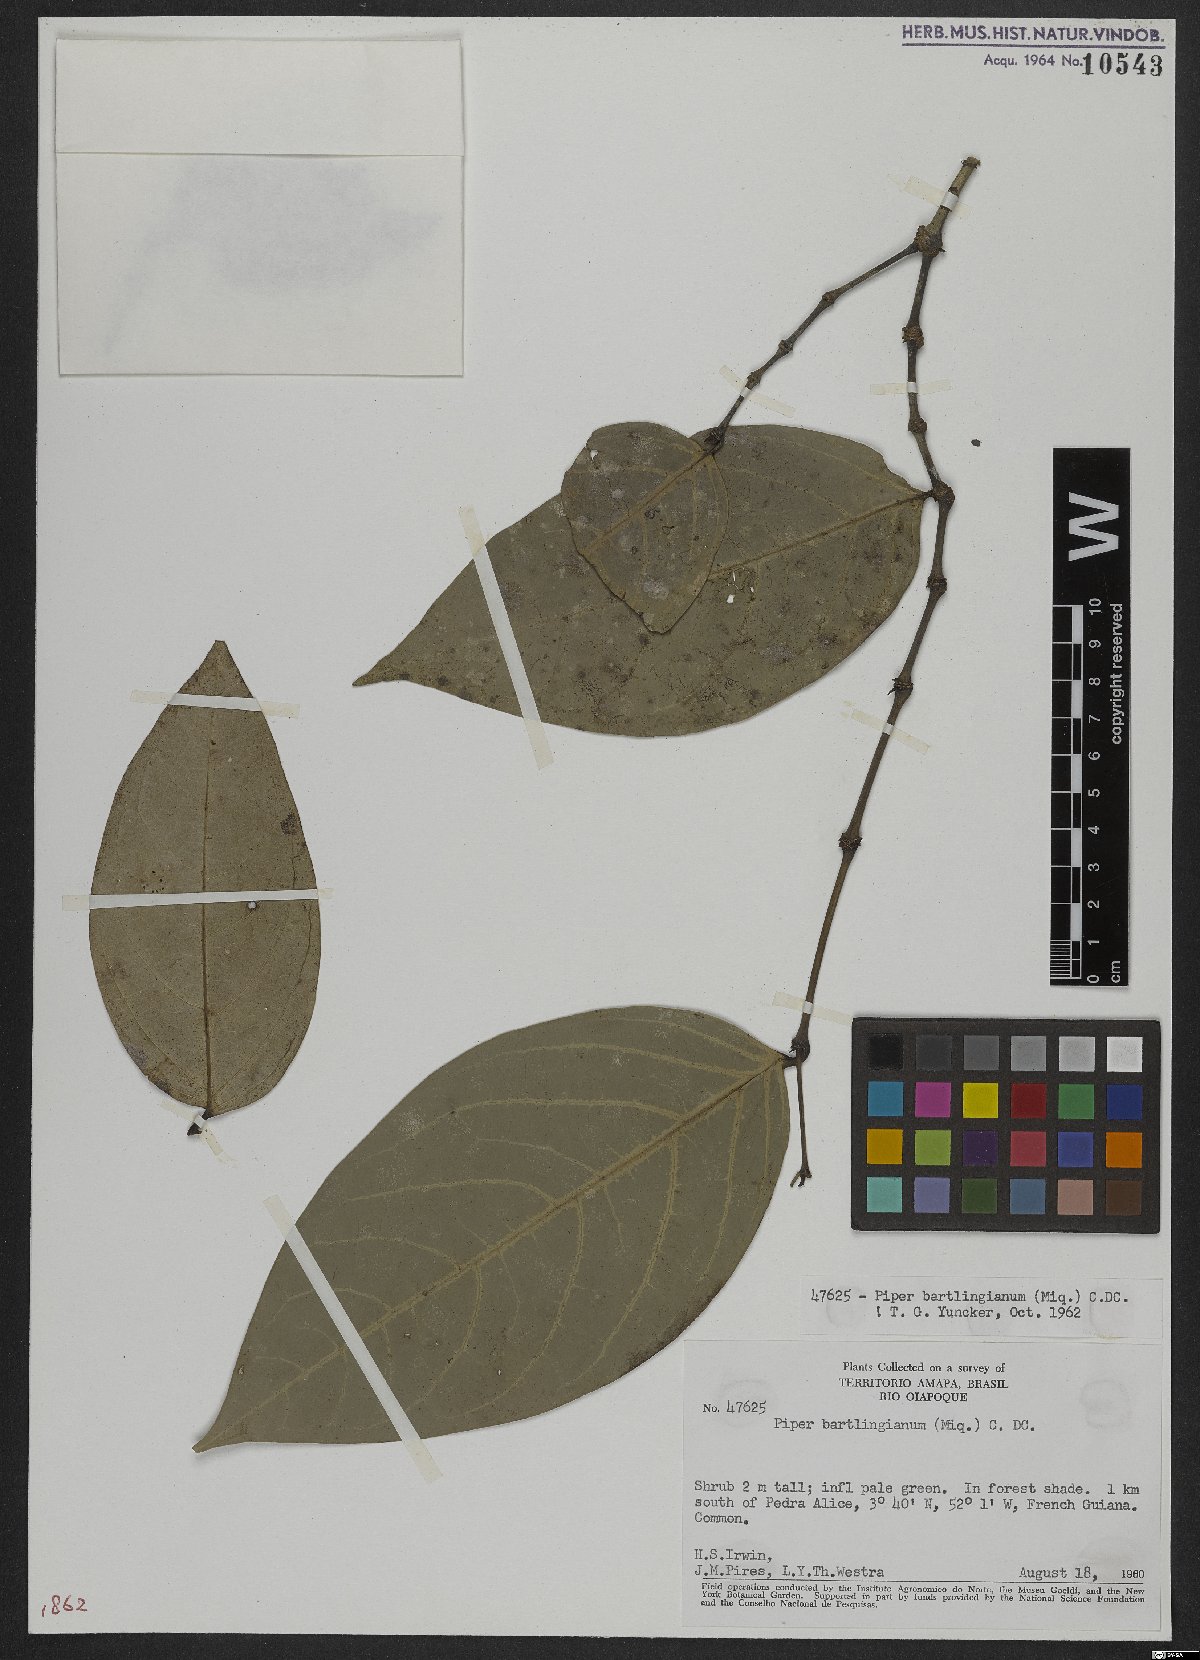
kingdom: Plantae
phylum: Tracheophyta
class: Magnoliopsida
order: Piperales
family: Piperaceae
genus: Piper
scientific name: Piper bartlingianum
